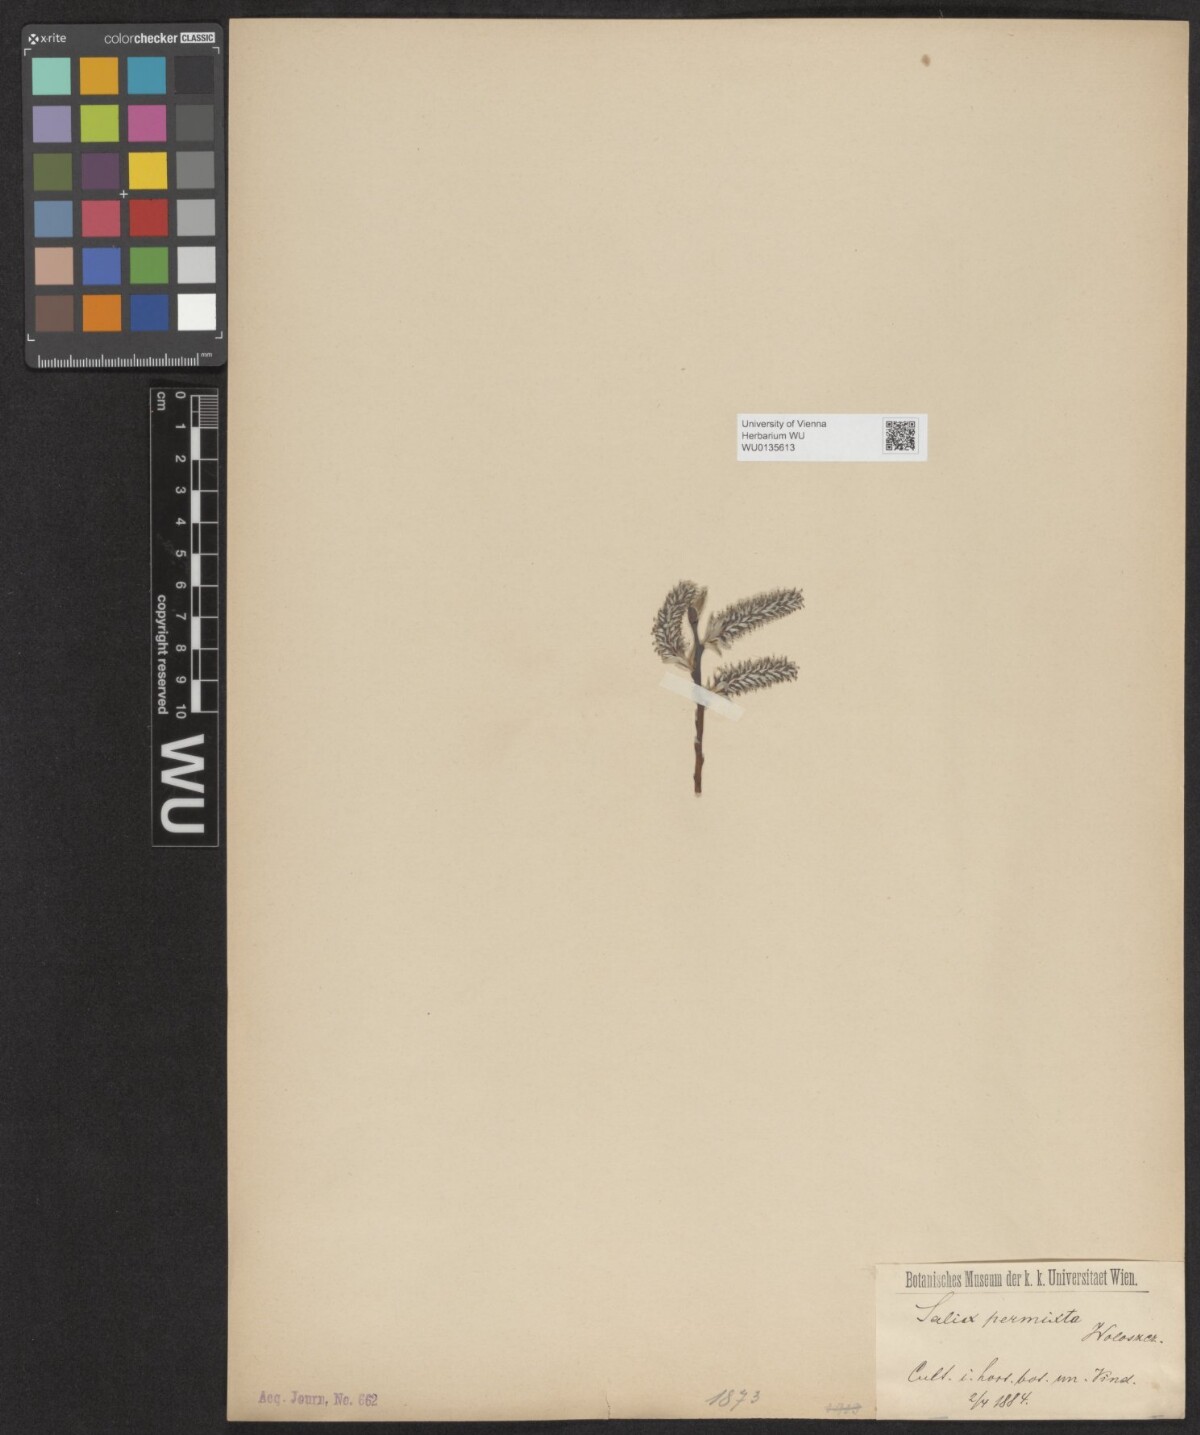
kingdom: Plantae
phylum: Tracheophyta
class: Magnoliopsida
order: Malpighiales
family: Salicaceae
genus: Salix
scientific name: Salix
